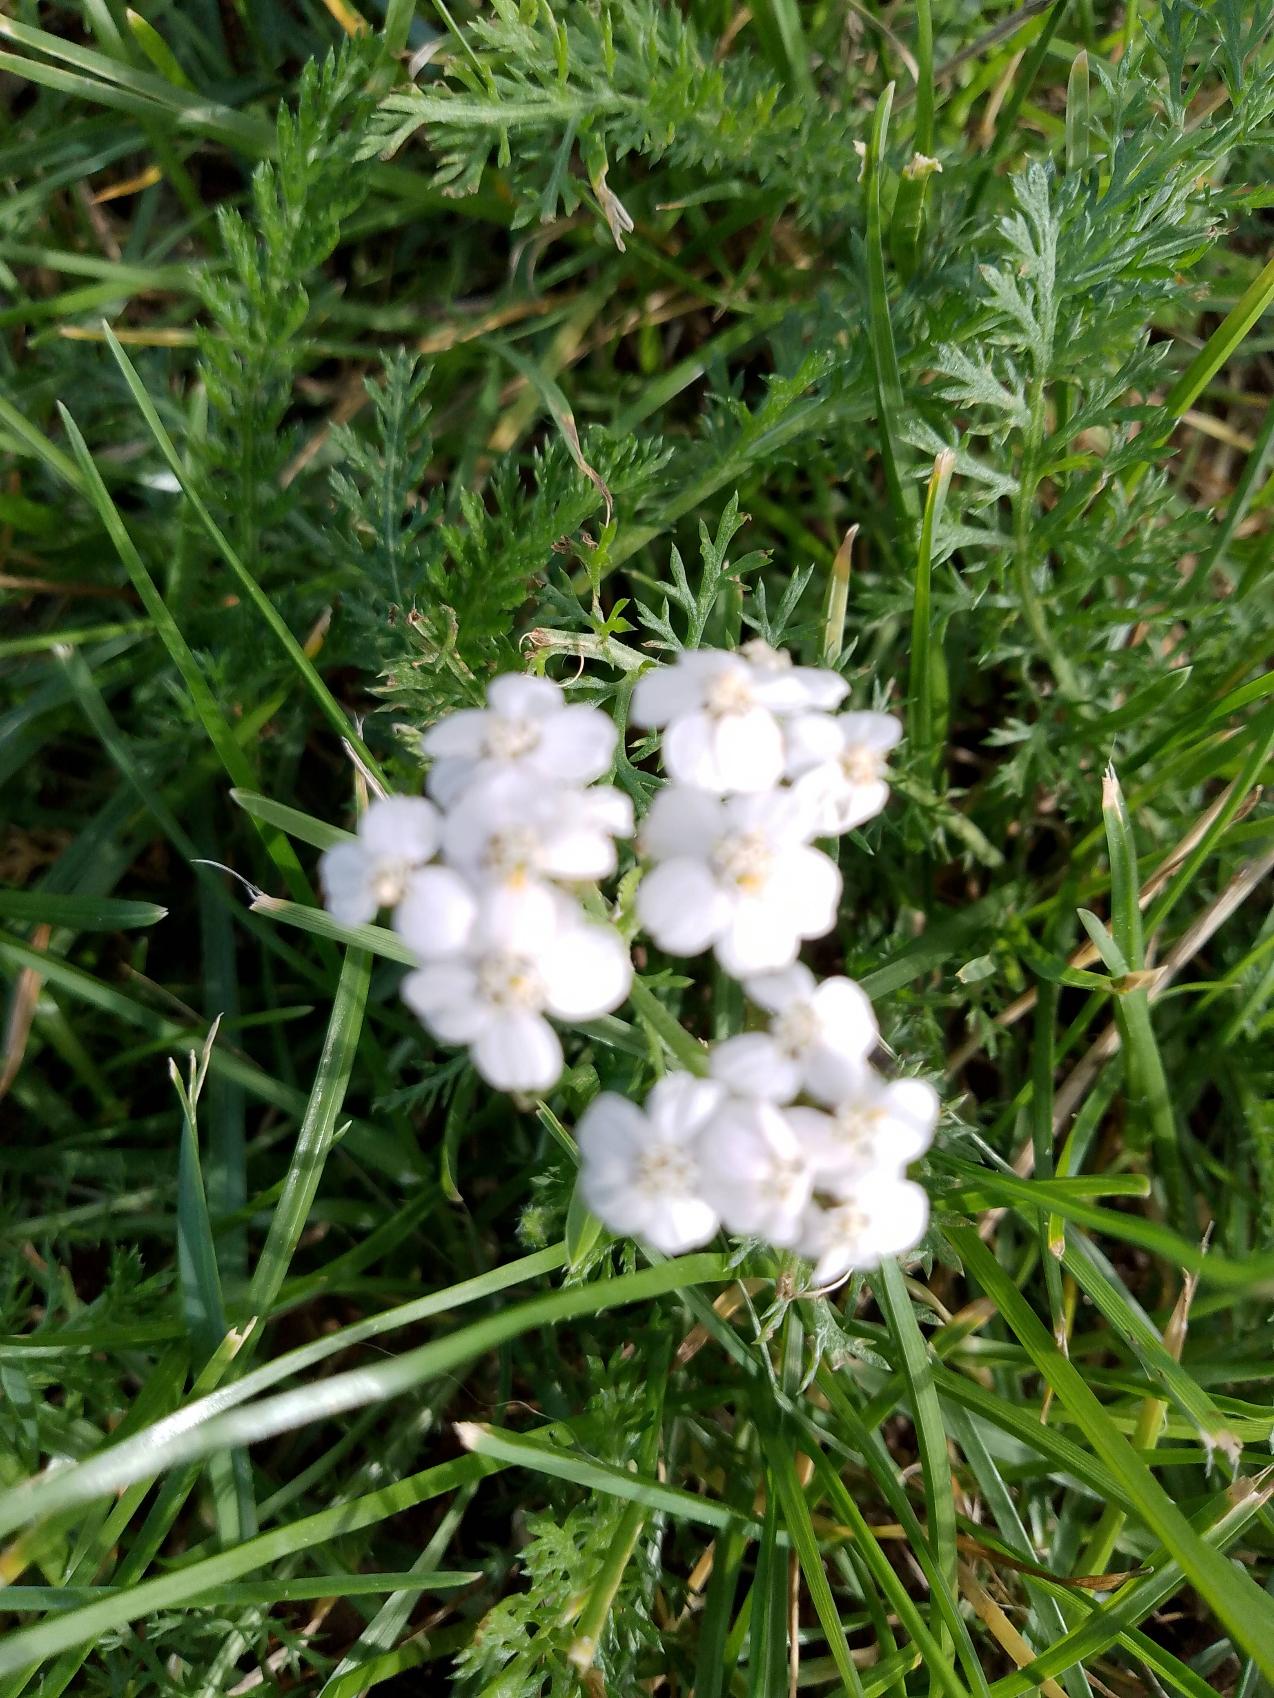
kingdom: Plantae
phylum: Tracheophyta
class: Magnoliopsida
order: Asterales
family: Asteraceae
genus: Achillea
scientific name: Achillea millefolium
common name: Almindelig røllike
